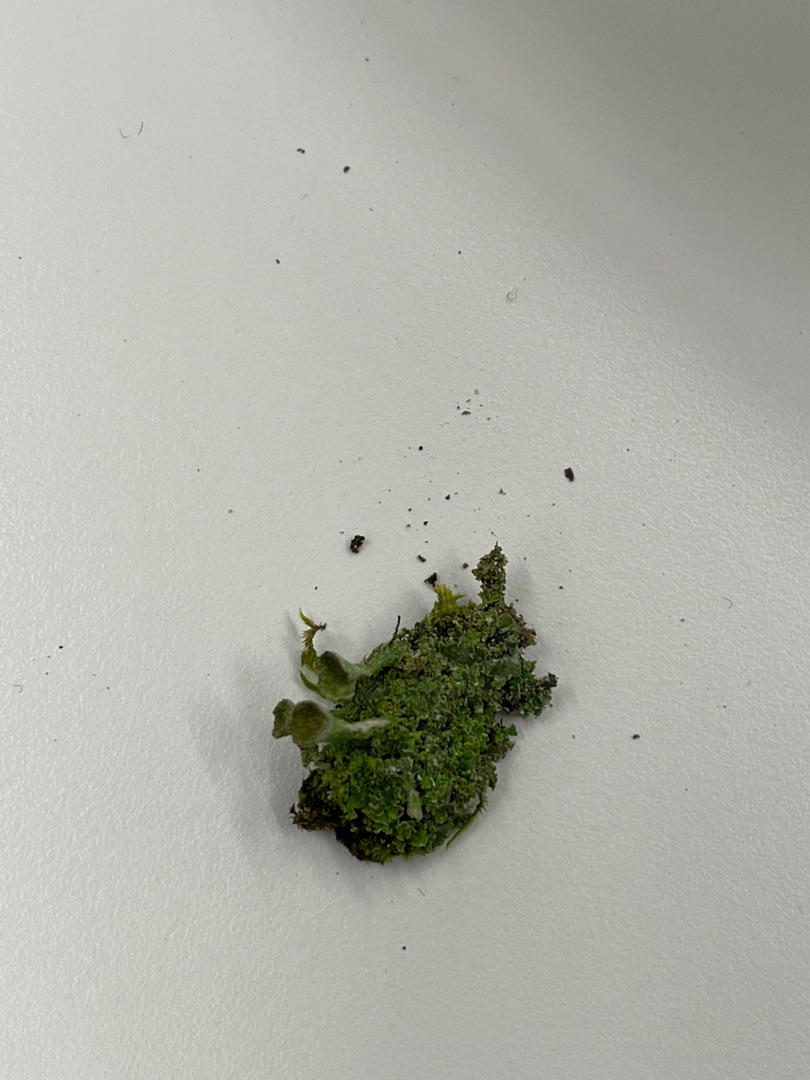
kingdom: Fungi
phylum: Ascomycota
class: Lecanoromycetes
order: Lecanorales
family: Cladoniaceae
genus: Cladonia
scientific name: Cladonia
